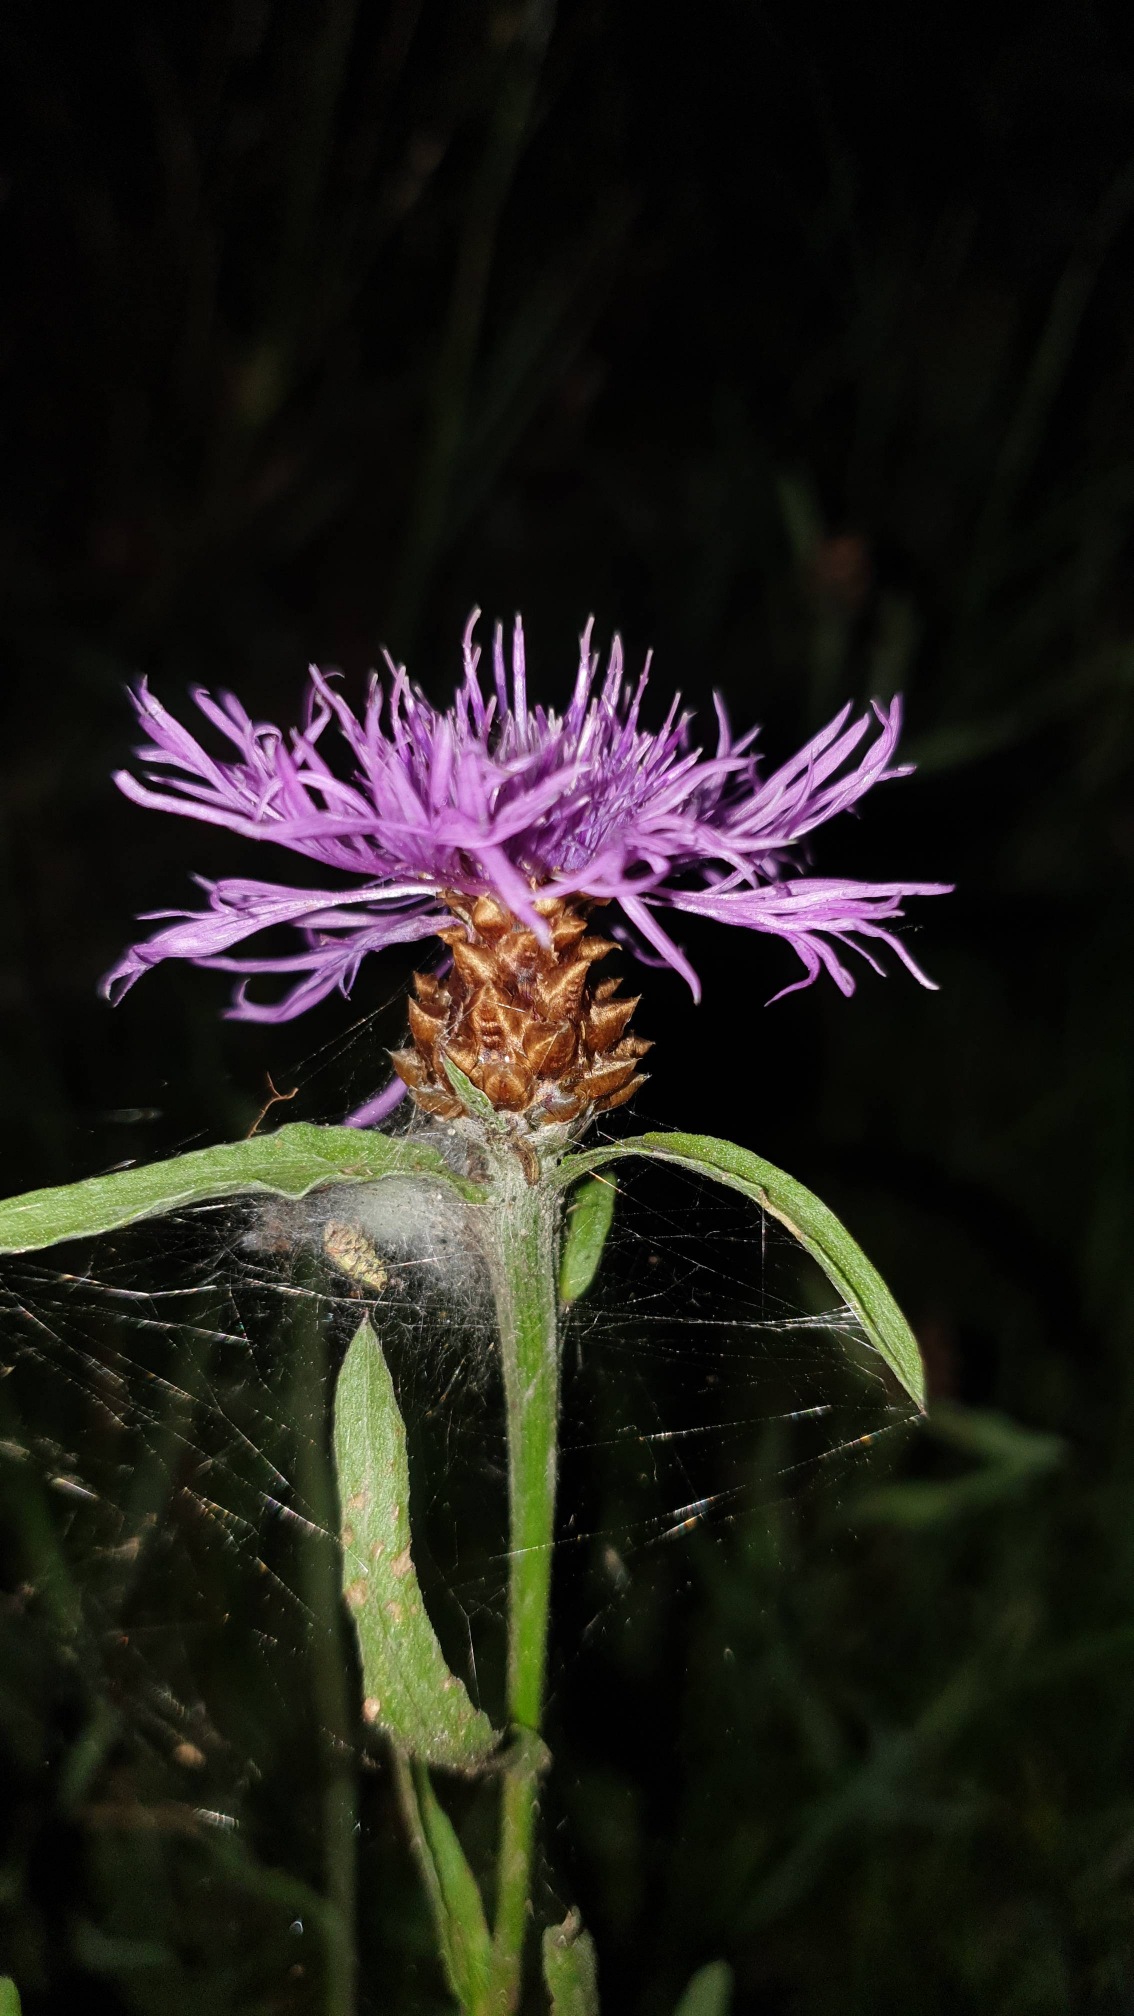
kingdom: Plantae
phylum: Tracheophyta
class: Magnoliopsida
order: Asterales
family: Asteraceae
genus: Centaurea
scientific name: Centaurea jacea
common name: Almindelig knopurt
